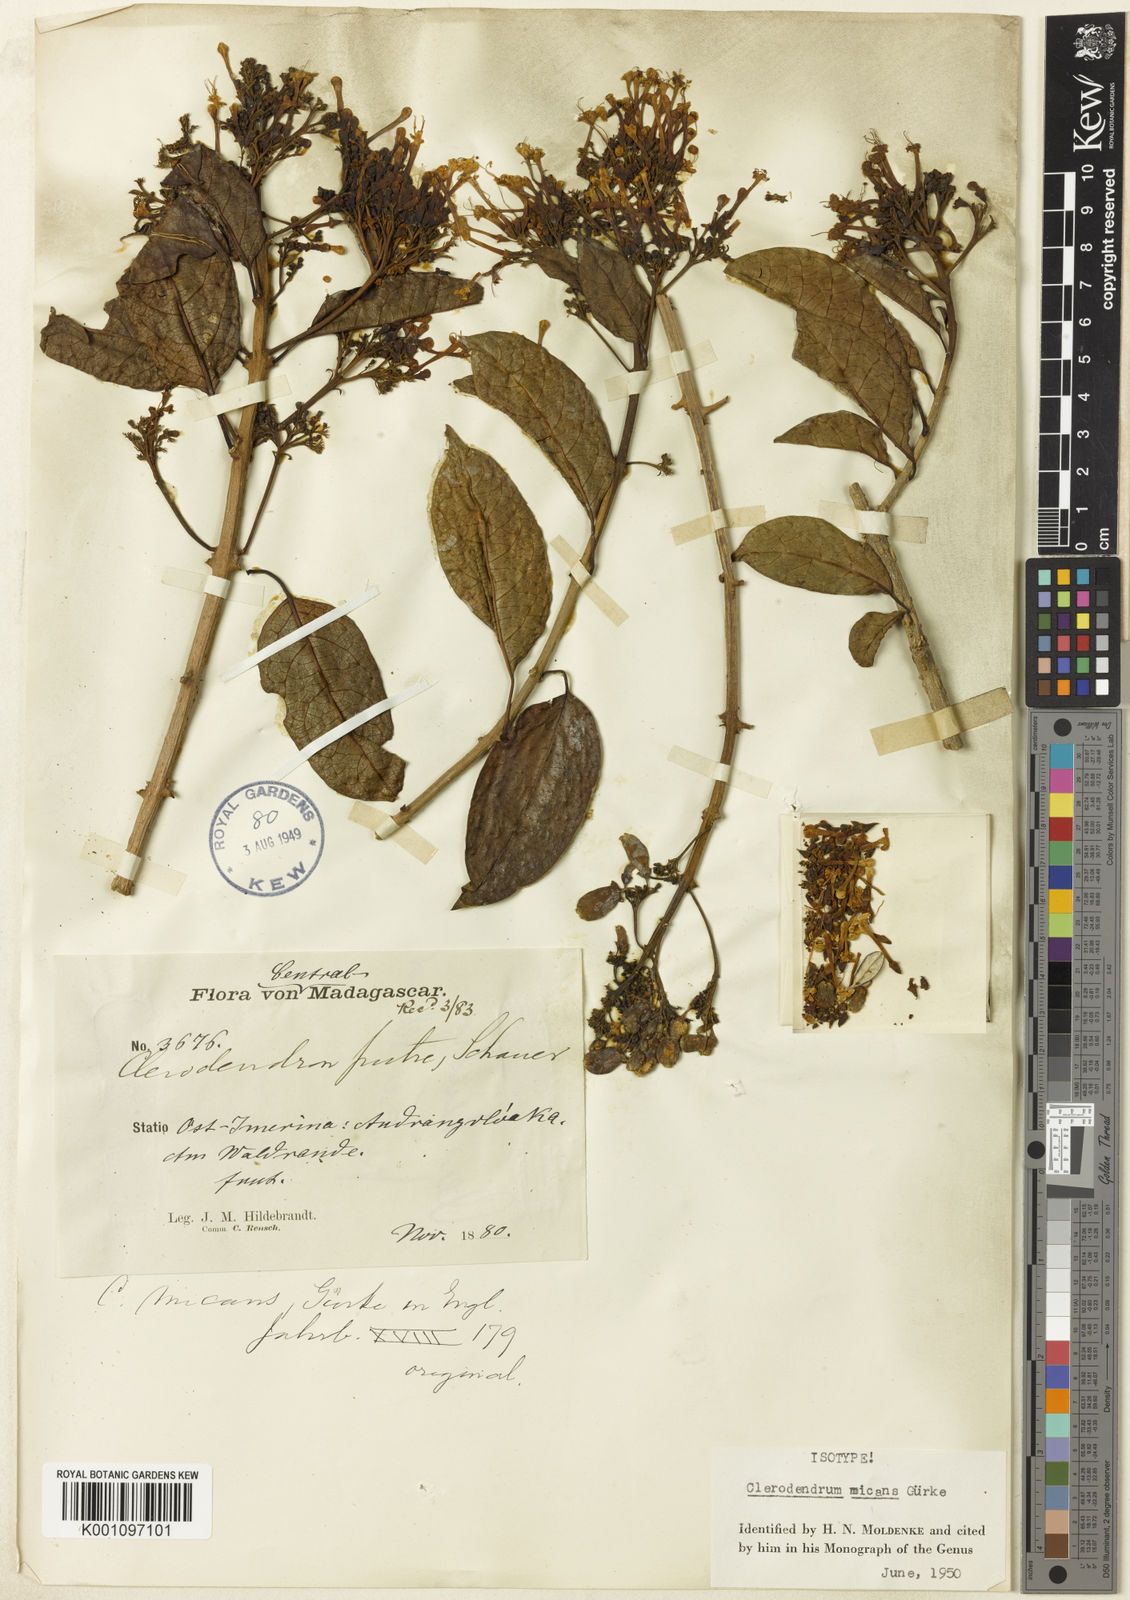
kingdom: Plantae
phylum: Tracheophyta
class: Magnoliopsida
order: Lamiales
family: Lamiaceae
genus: Clerodendrum
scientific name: Clerodendrum
